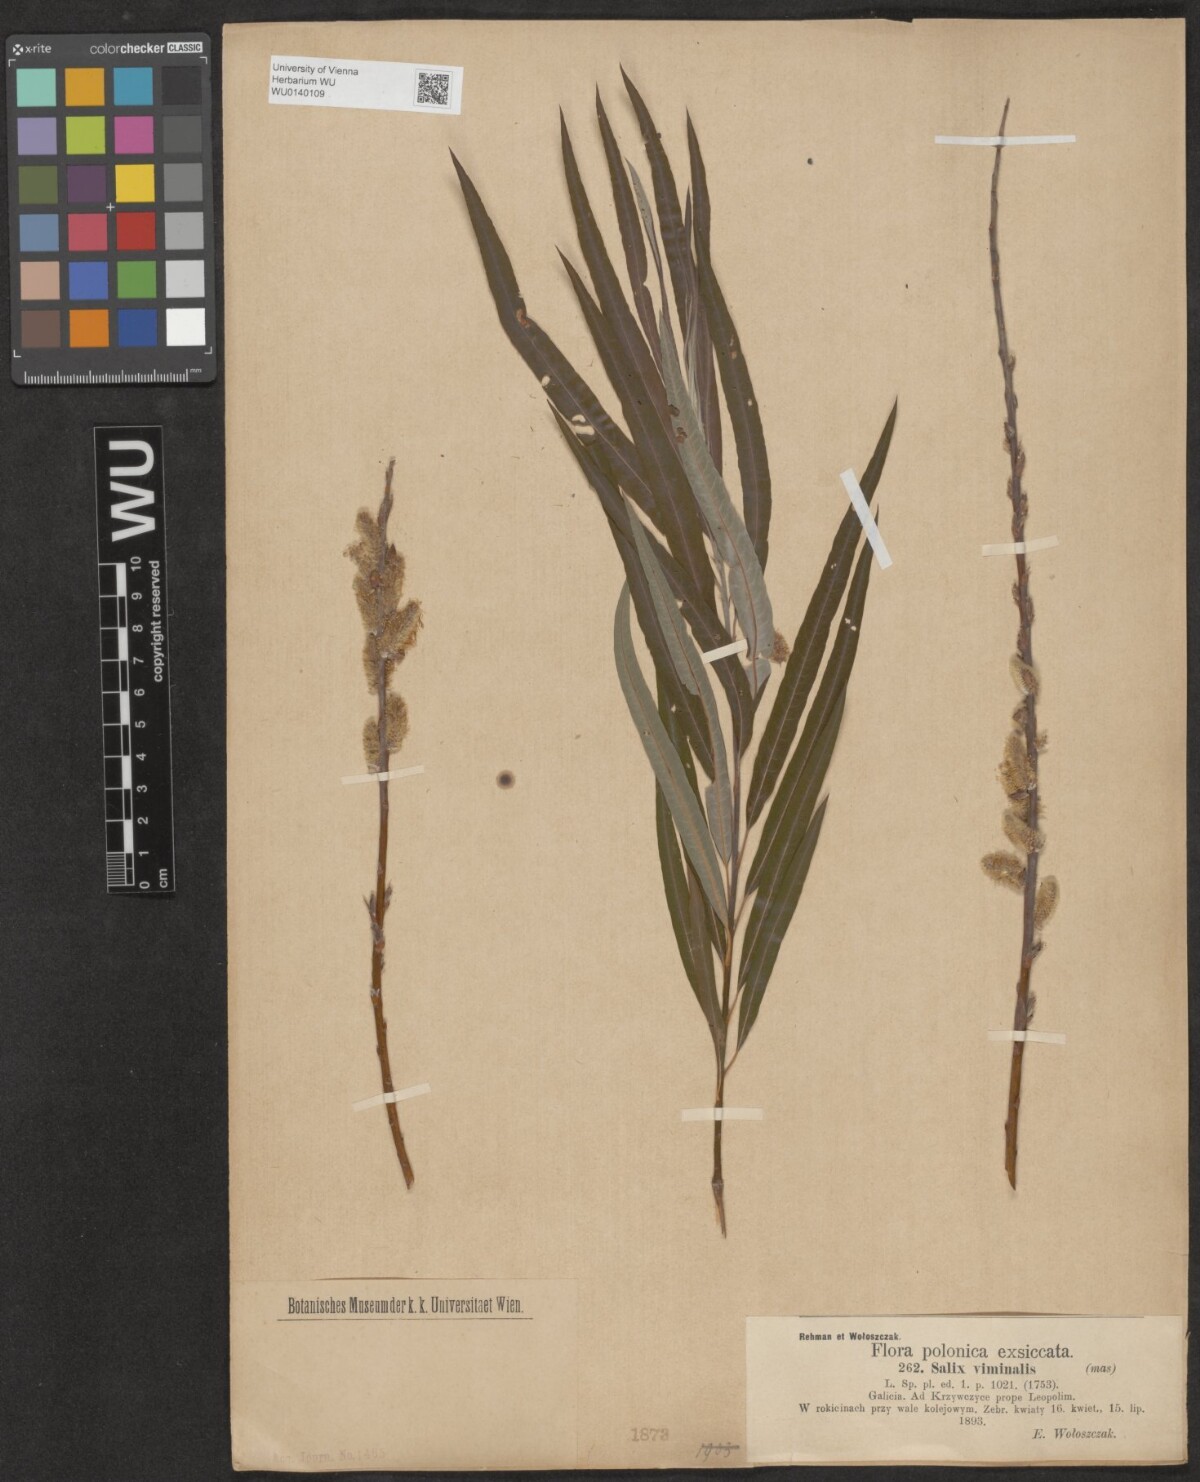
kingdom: Plantae
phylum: Tracheophyta
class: Magnoliopsida
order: Malpighiales
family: Salicaceae
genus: Salix
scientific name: Salix viminalis
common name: Osier
